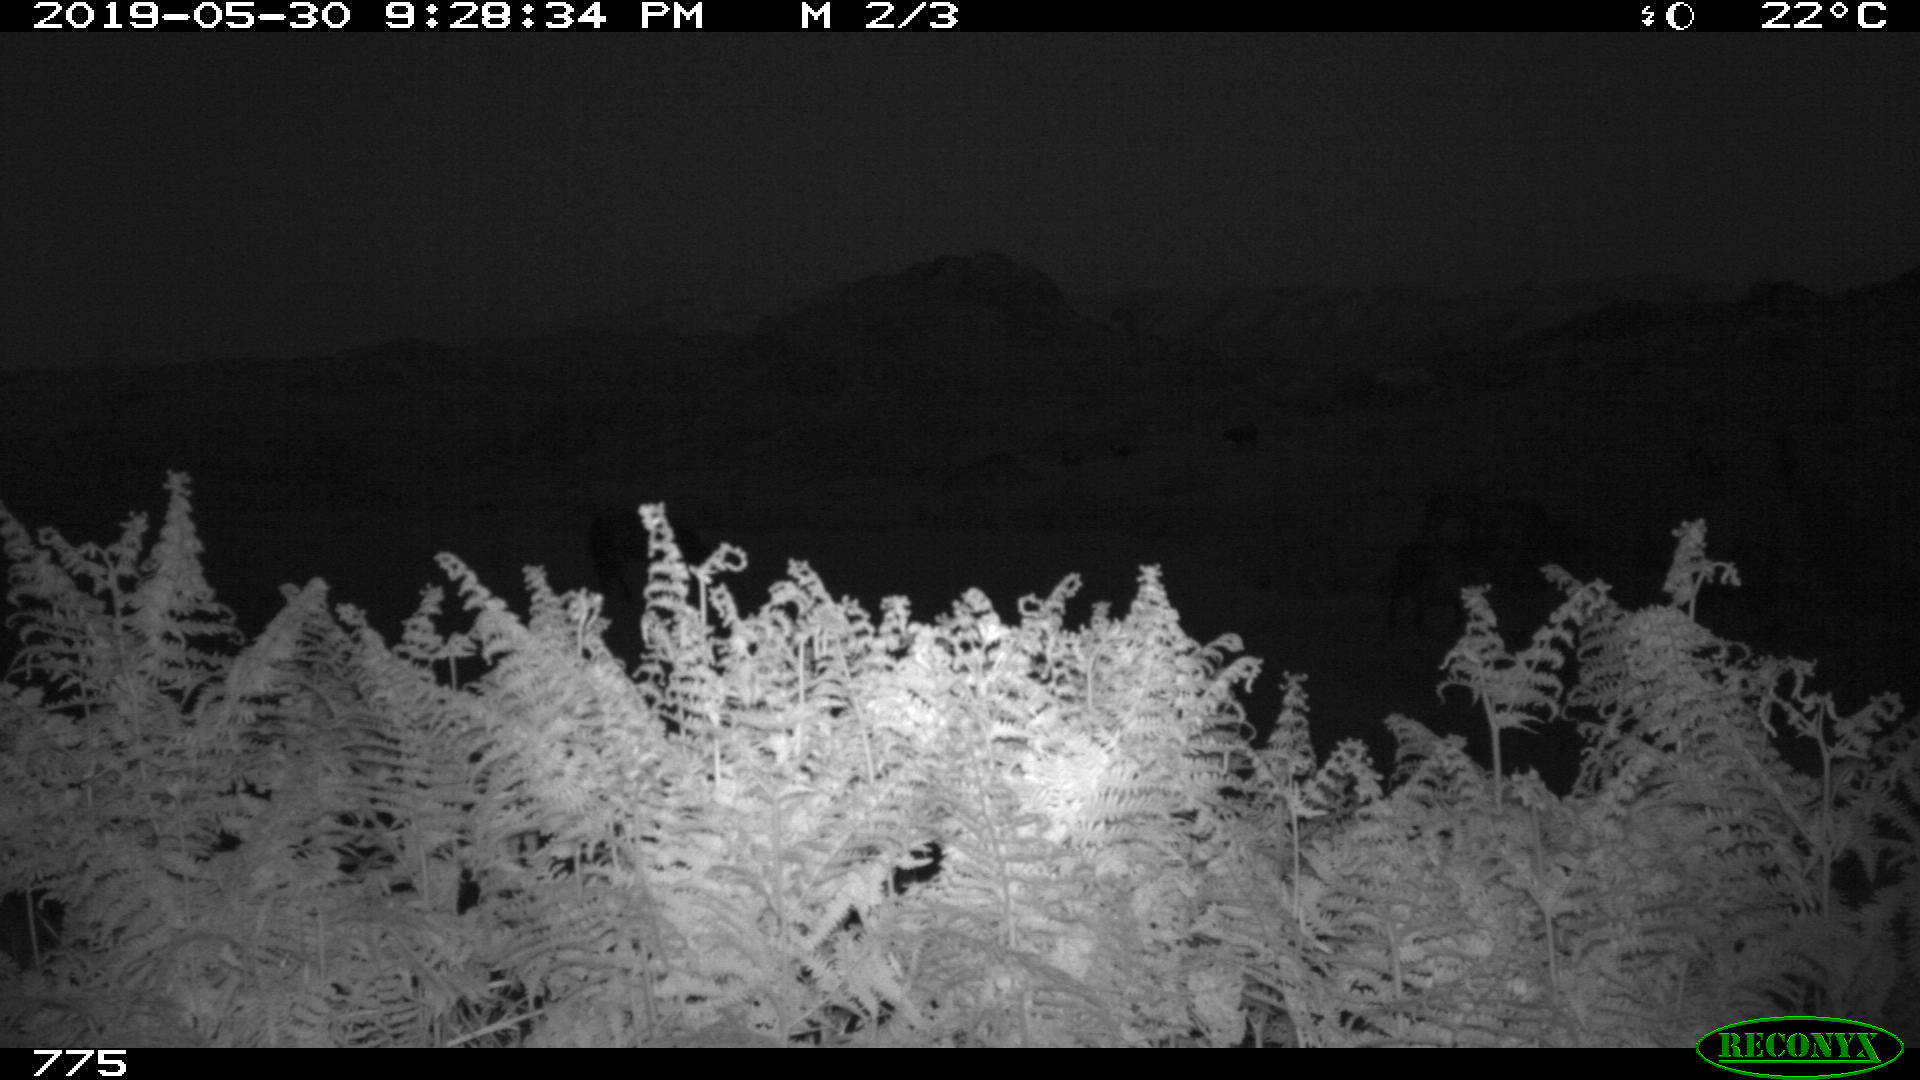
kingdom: Animalia
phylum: Chordata
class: Mammalia
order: Artiodactyla
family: Bovidae
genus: Bos
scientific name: Bos taurus
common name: Domesticated cattle
